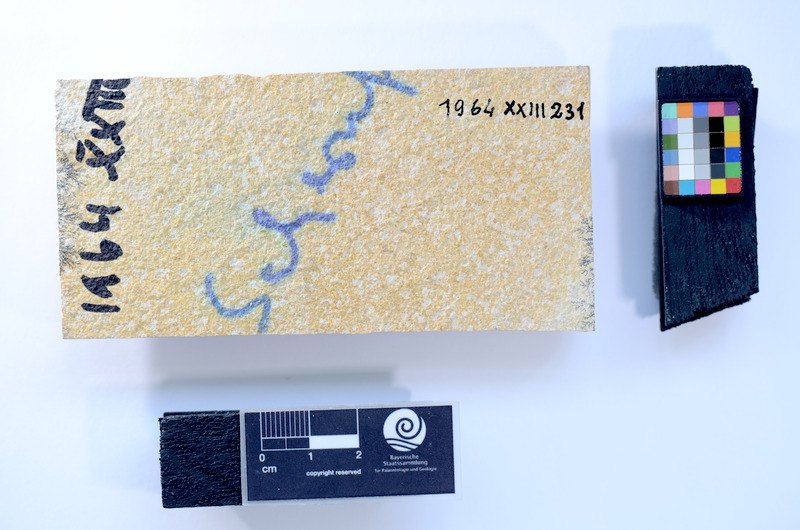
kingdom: Animalia
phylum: Chordata
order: Salmoniformes
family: Orthogonikleithridae
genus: Leptolepides
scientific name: Leptolepides
